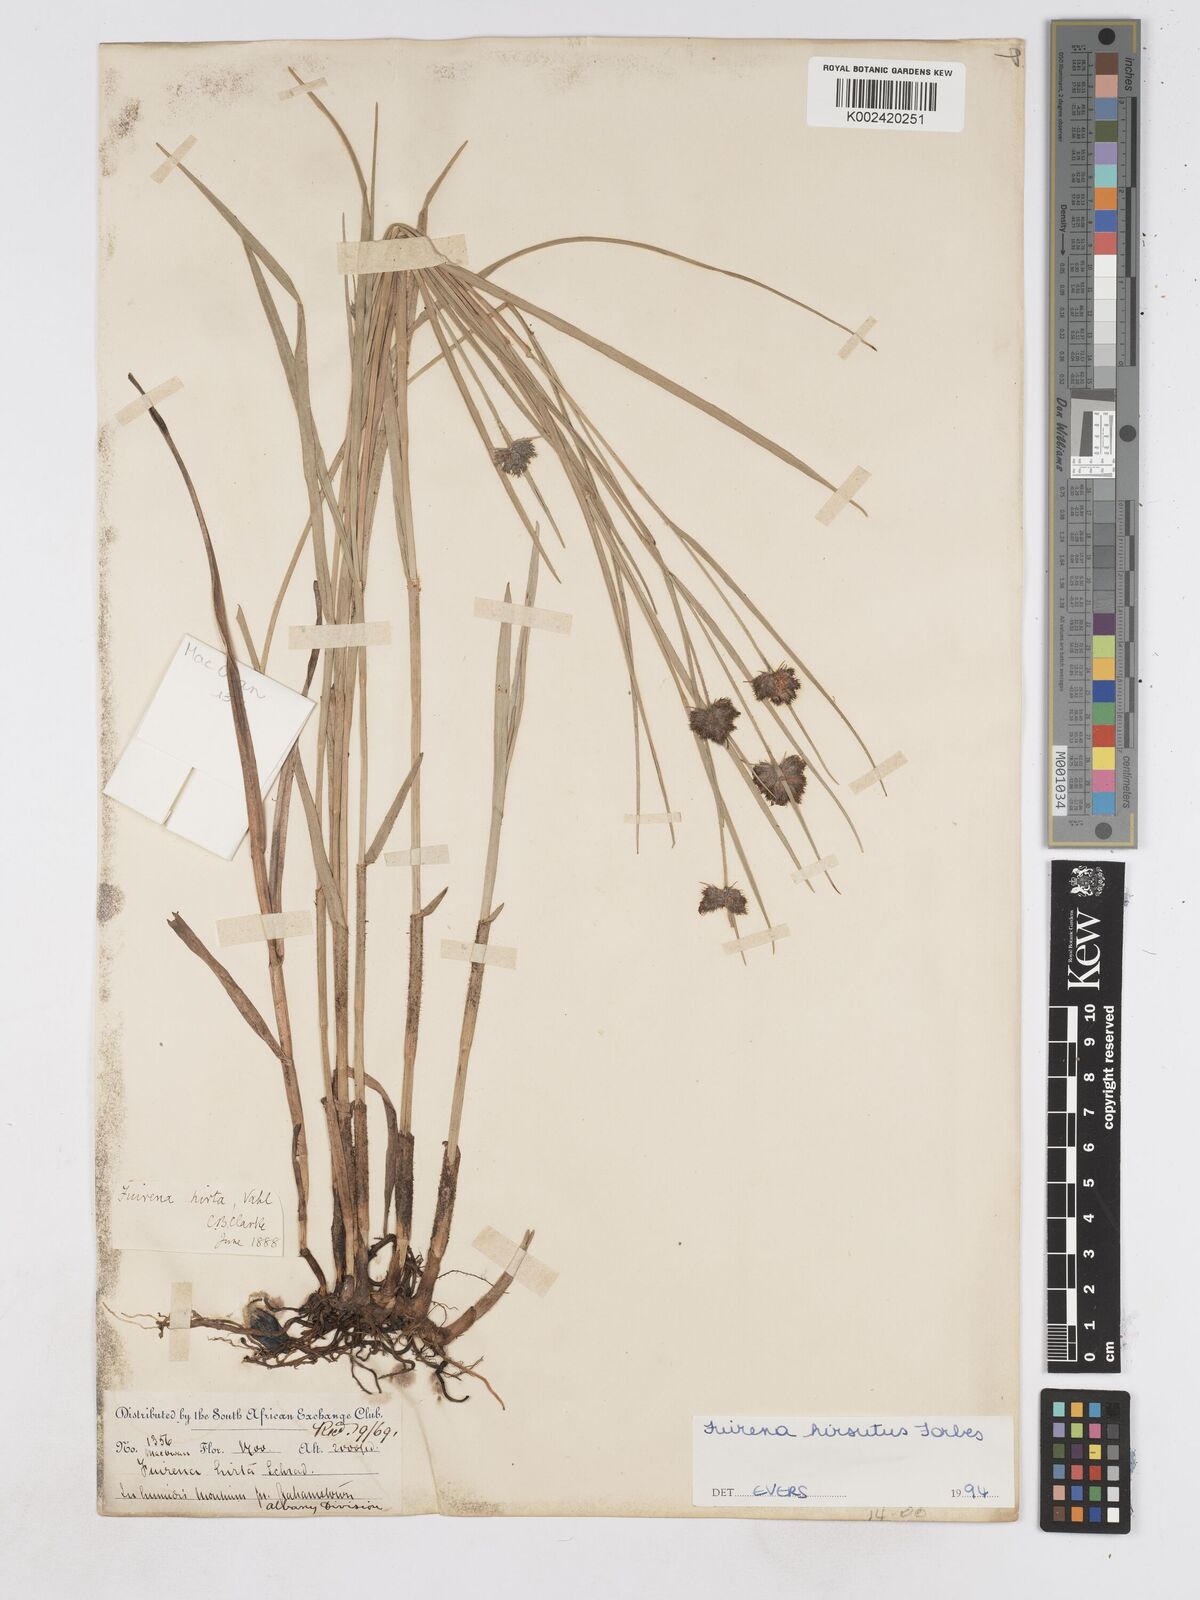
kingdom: Plantae
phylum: Tracheophyta
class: Liliopsida
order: Poales
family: Cyperaceae
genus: Fuirena
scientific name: Fuirena hirsuta
